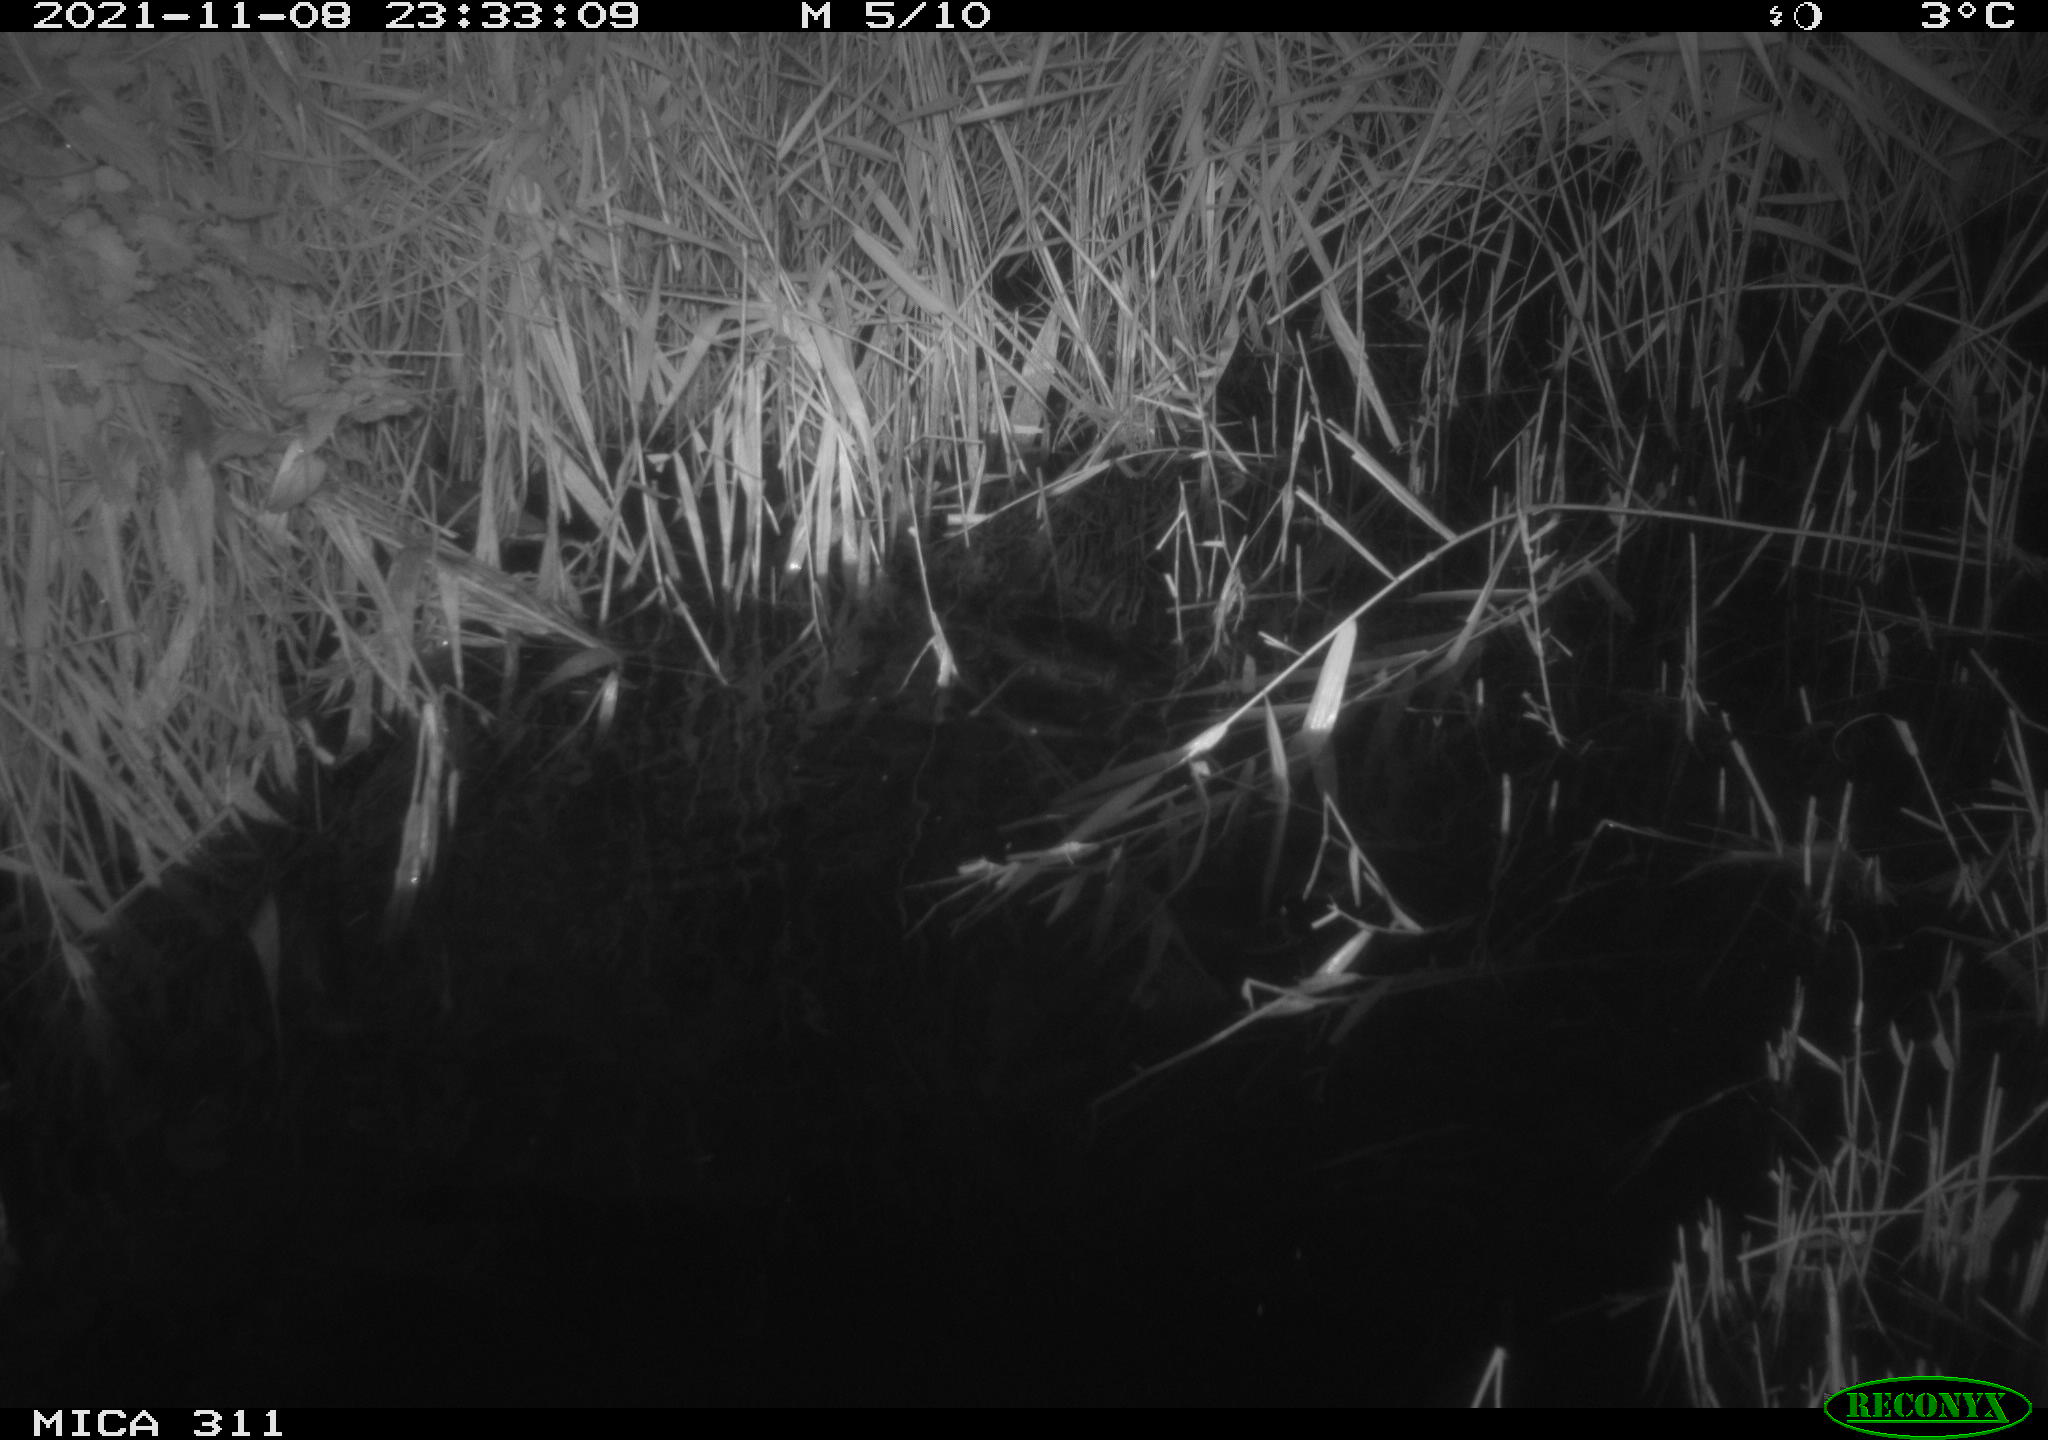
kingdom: Animalia
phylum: Chordata
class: Mammalia
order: Rodentia
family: Muridae
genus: Rattus
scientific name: Rattus norvegicus
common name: Brown rat
